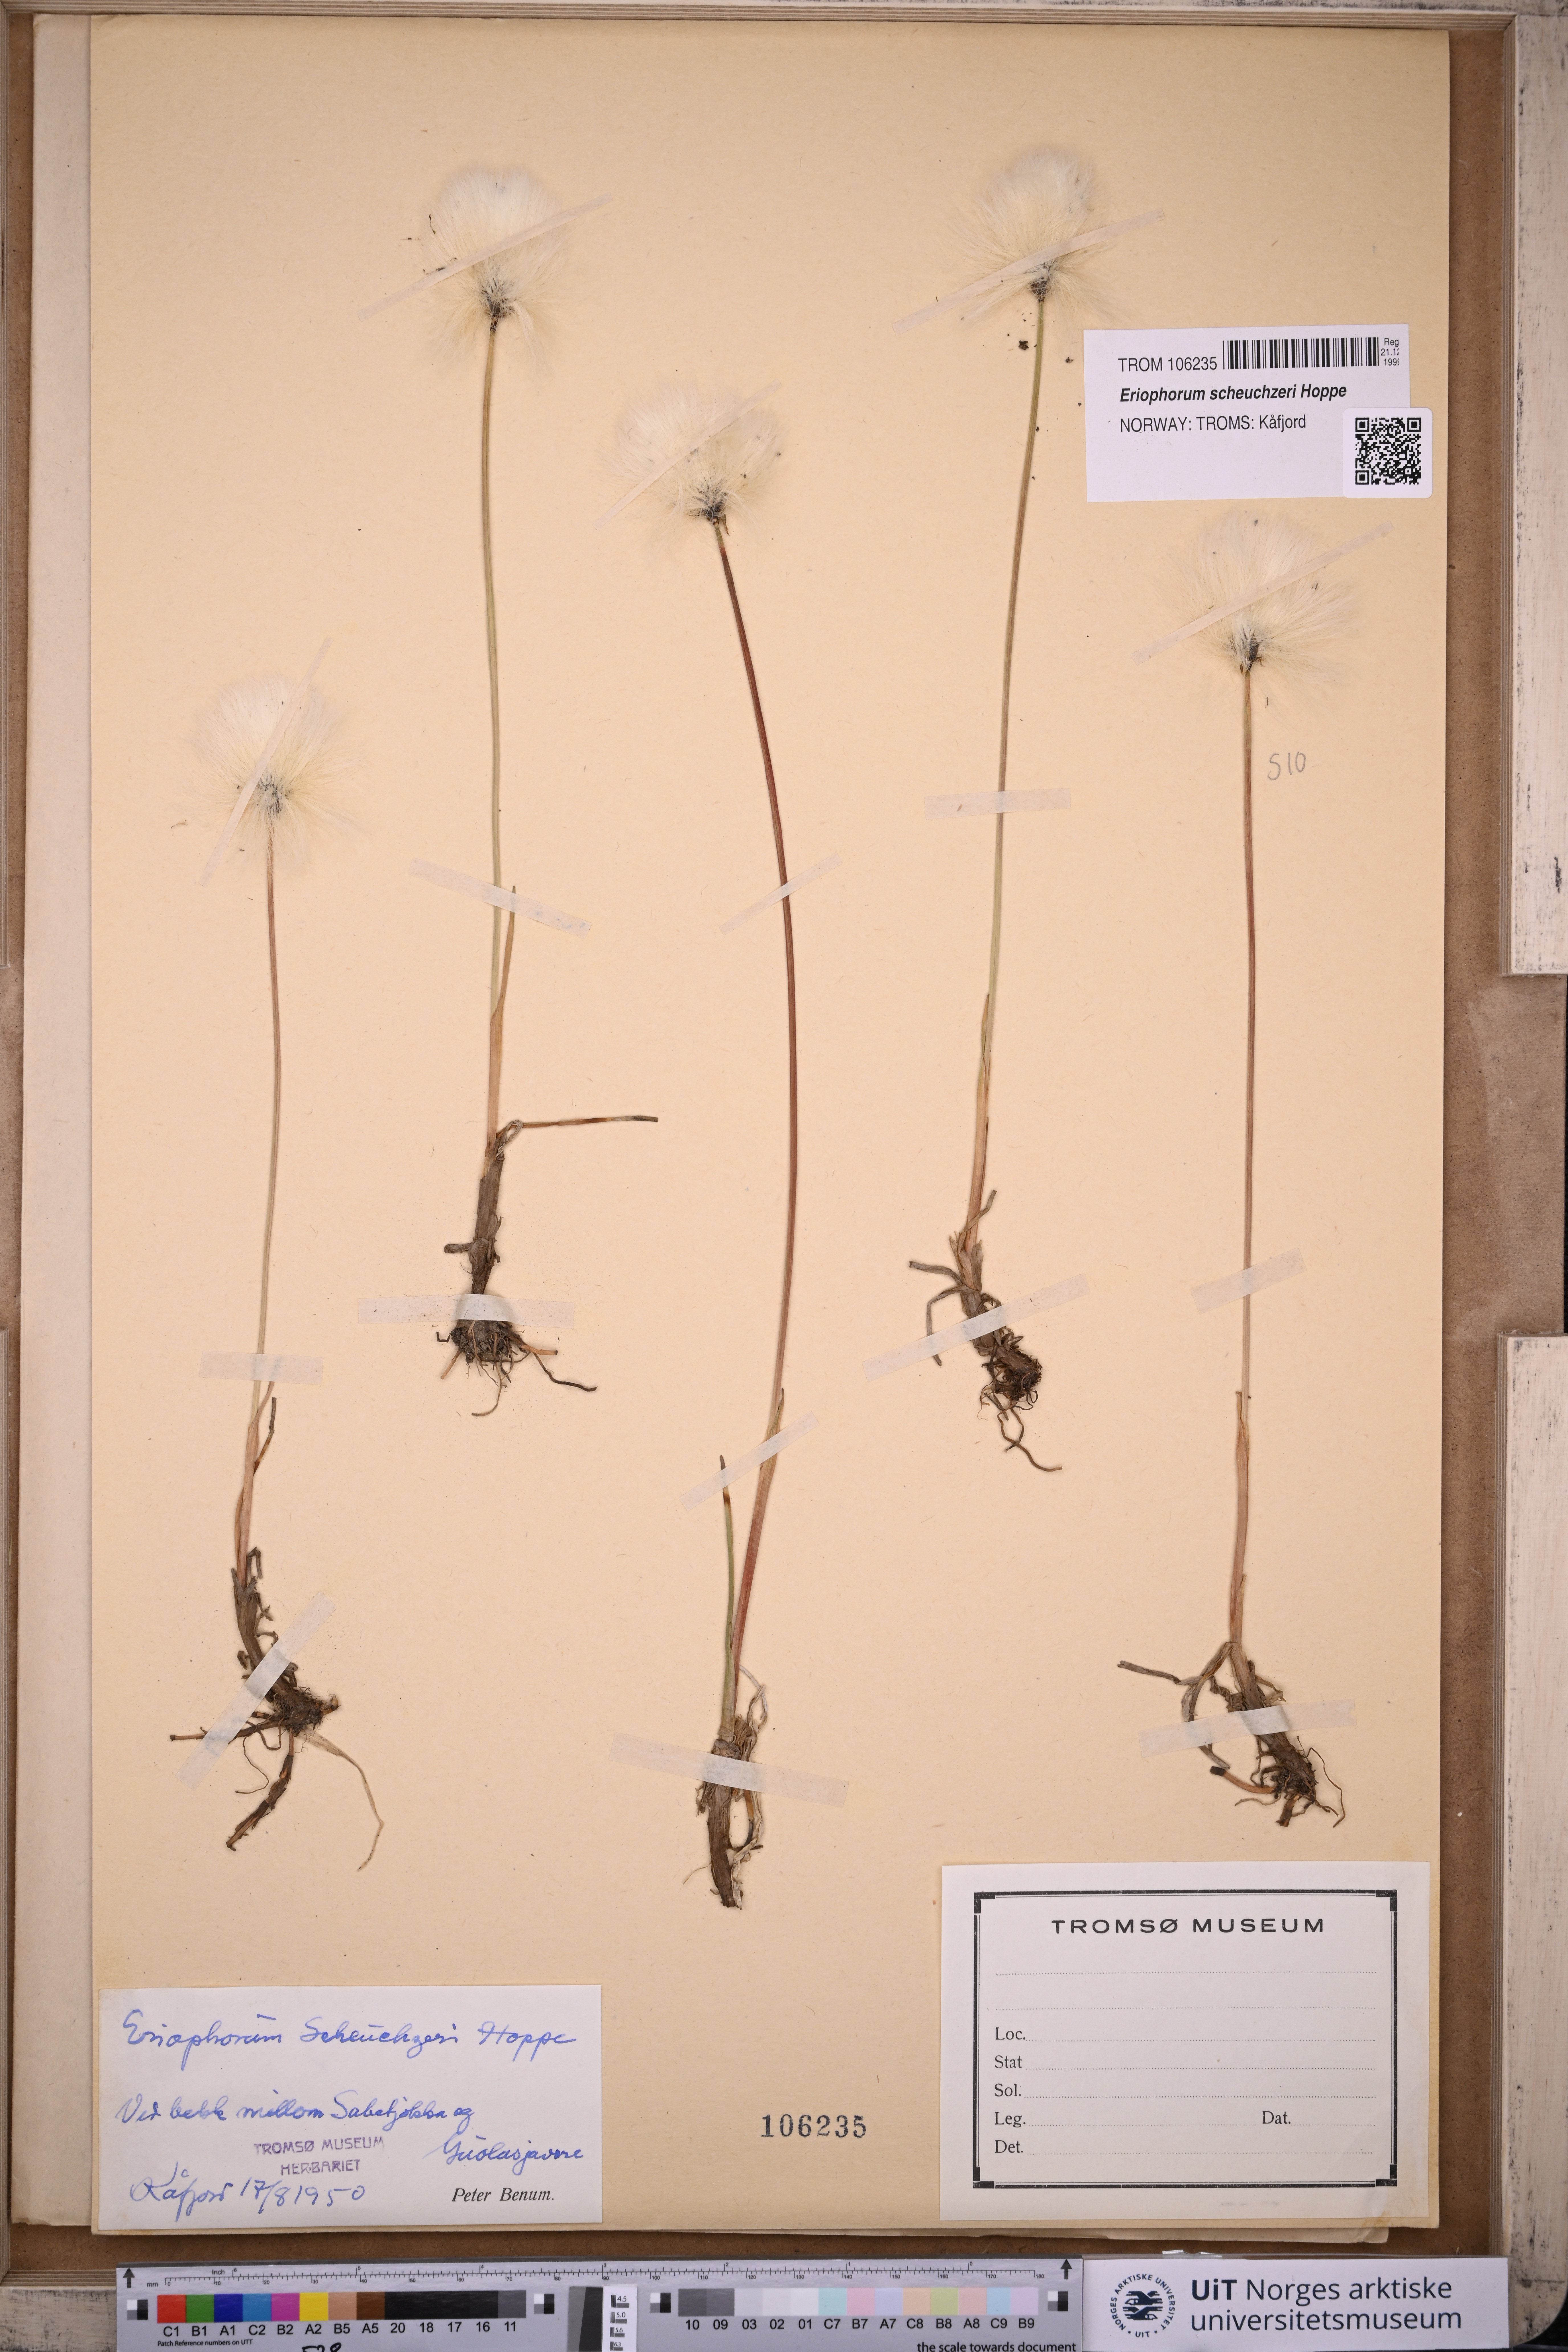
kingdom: Plantae
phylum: Tracheophyta
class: Liliopsida
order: Poales
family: Cyperaceae
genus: Eriophorum
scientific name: Eriophorum scheuchzeri
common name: Scheuchzer's cottongrass
